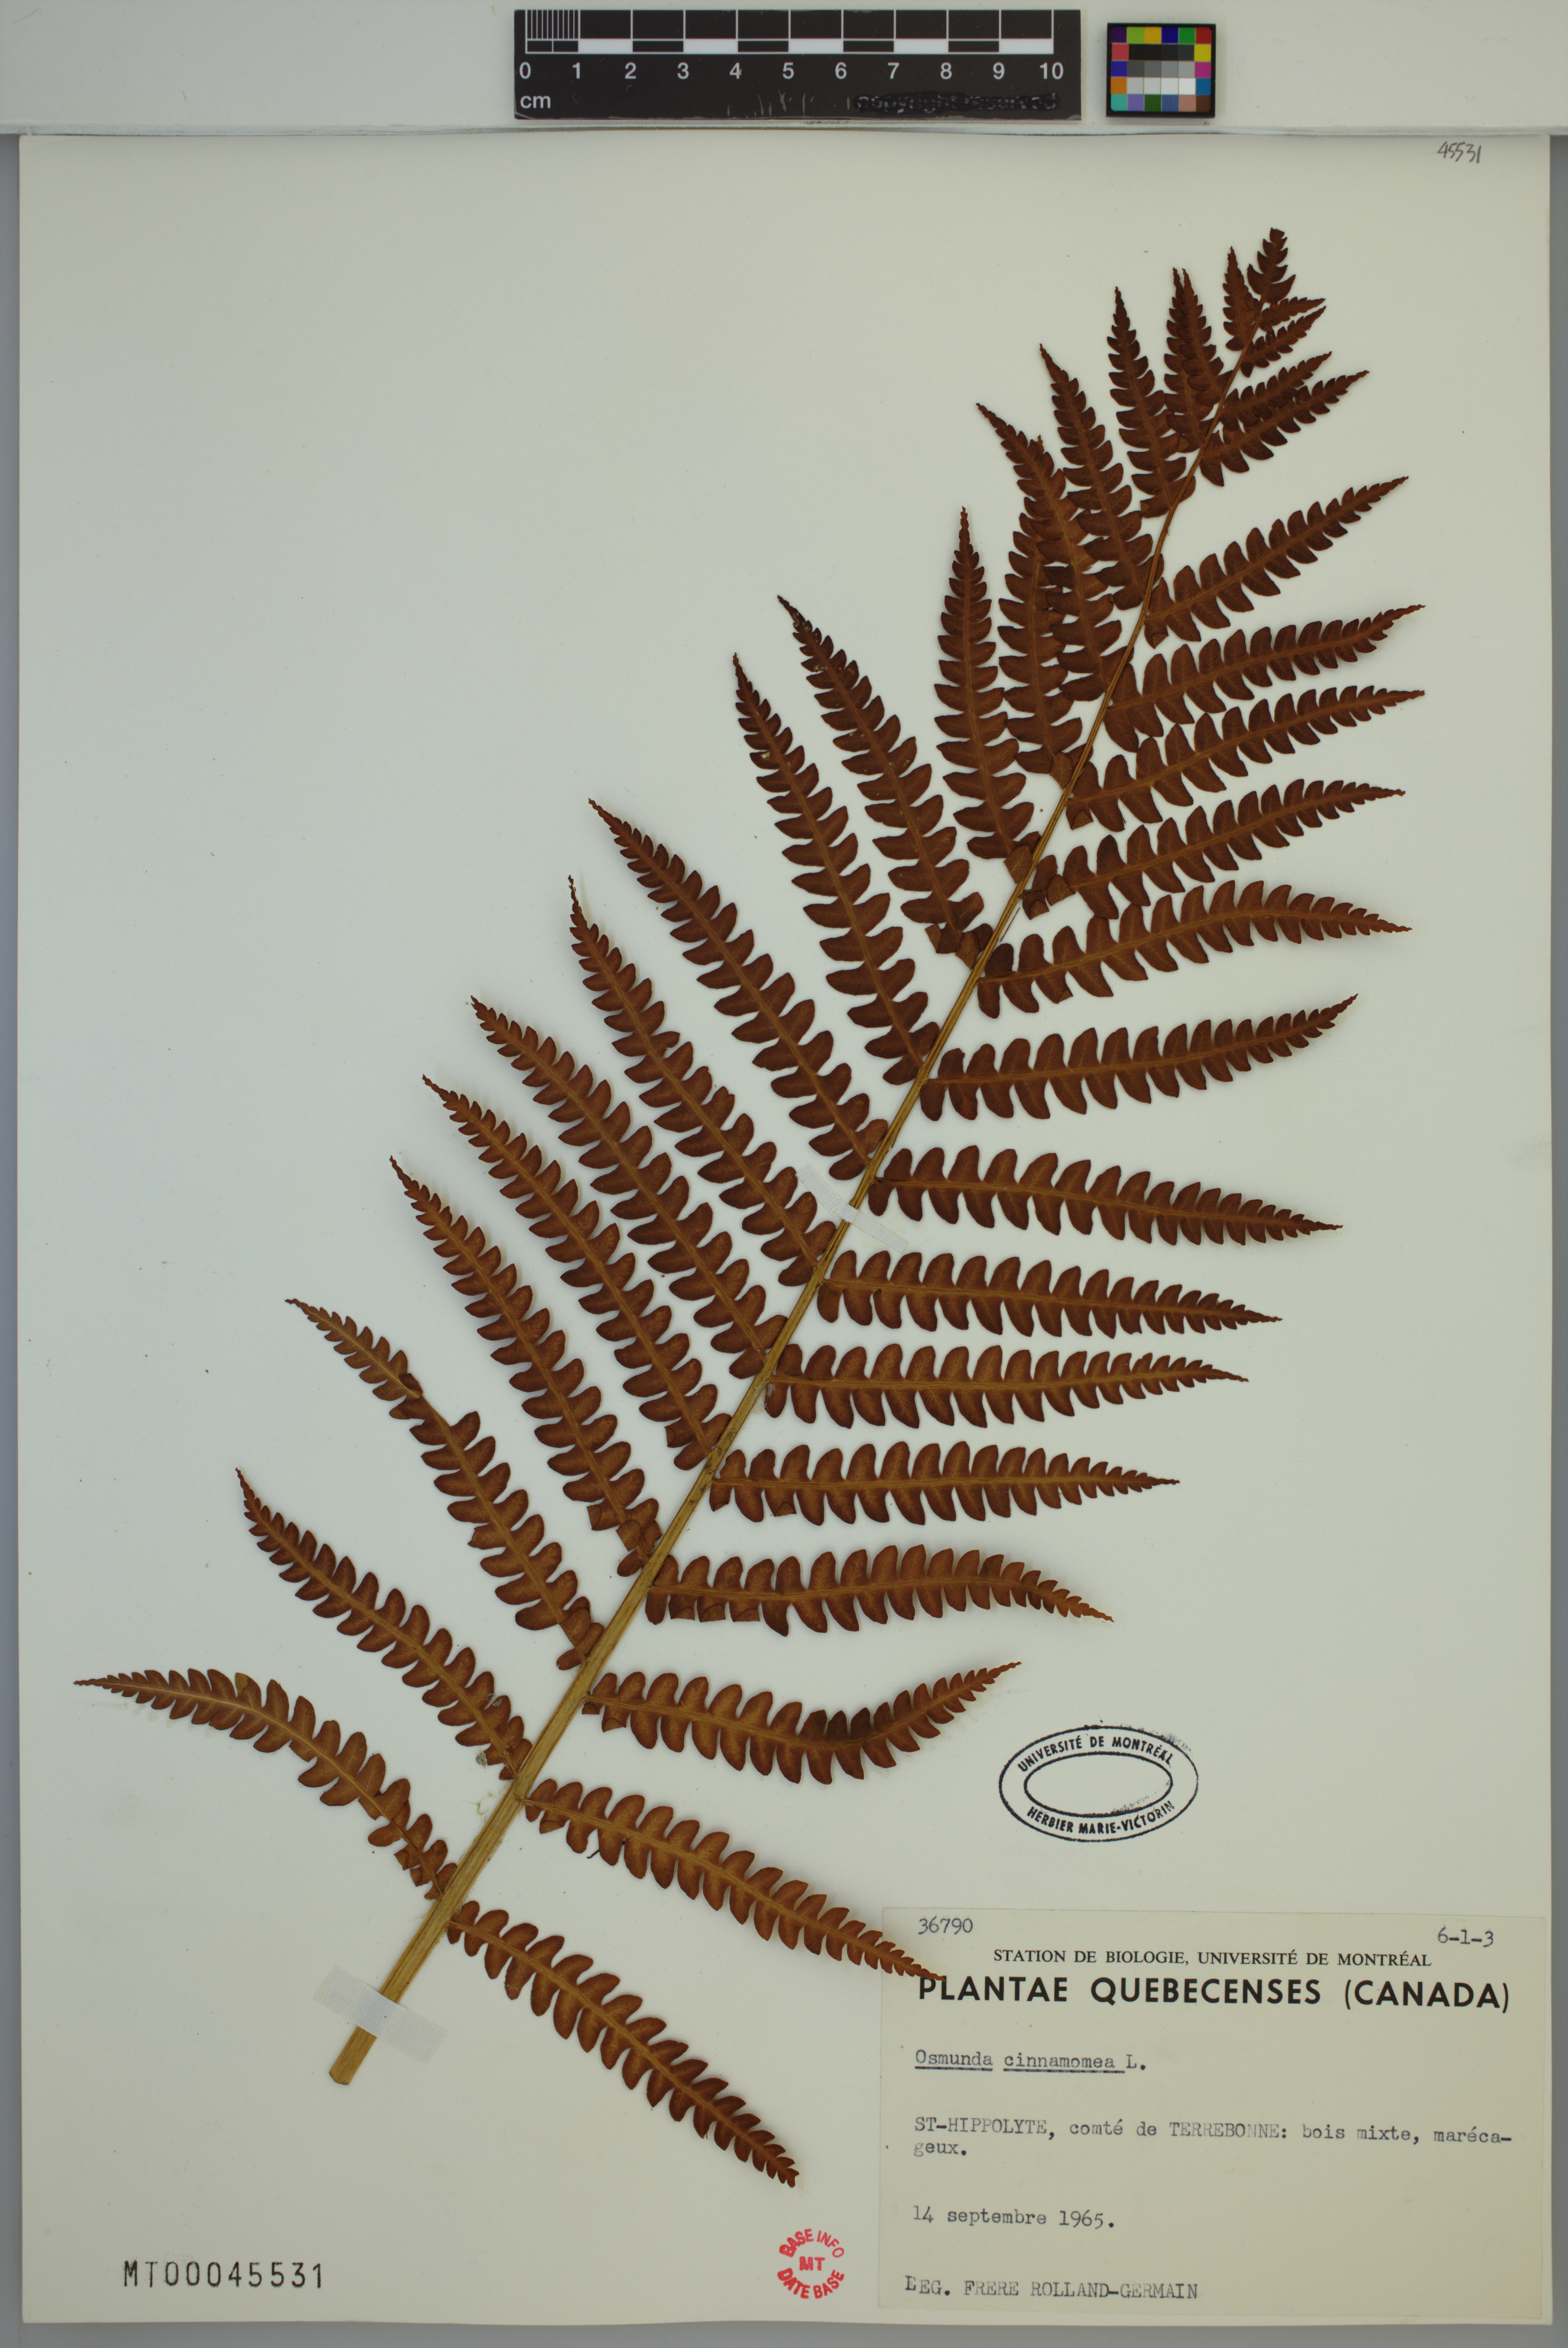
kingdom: Plantae
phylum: Tracheophyta
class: Polypodiopsida
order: Osmundales
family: Osmundaceae
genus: Osmundastrum
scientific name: Osmundastrum cinnamomeum
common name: Cinnamon fern
